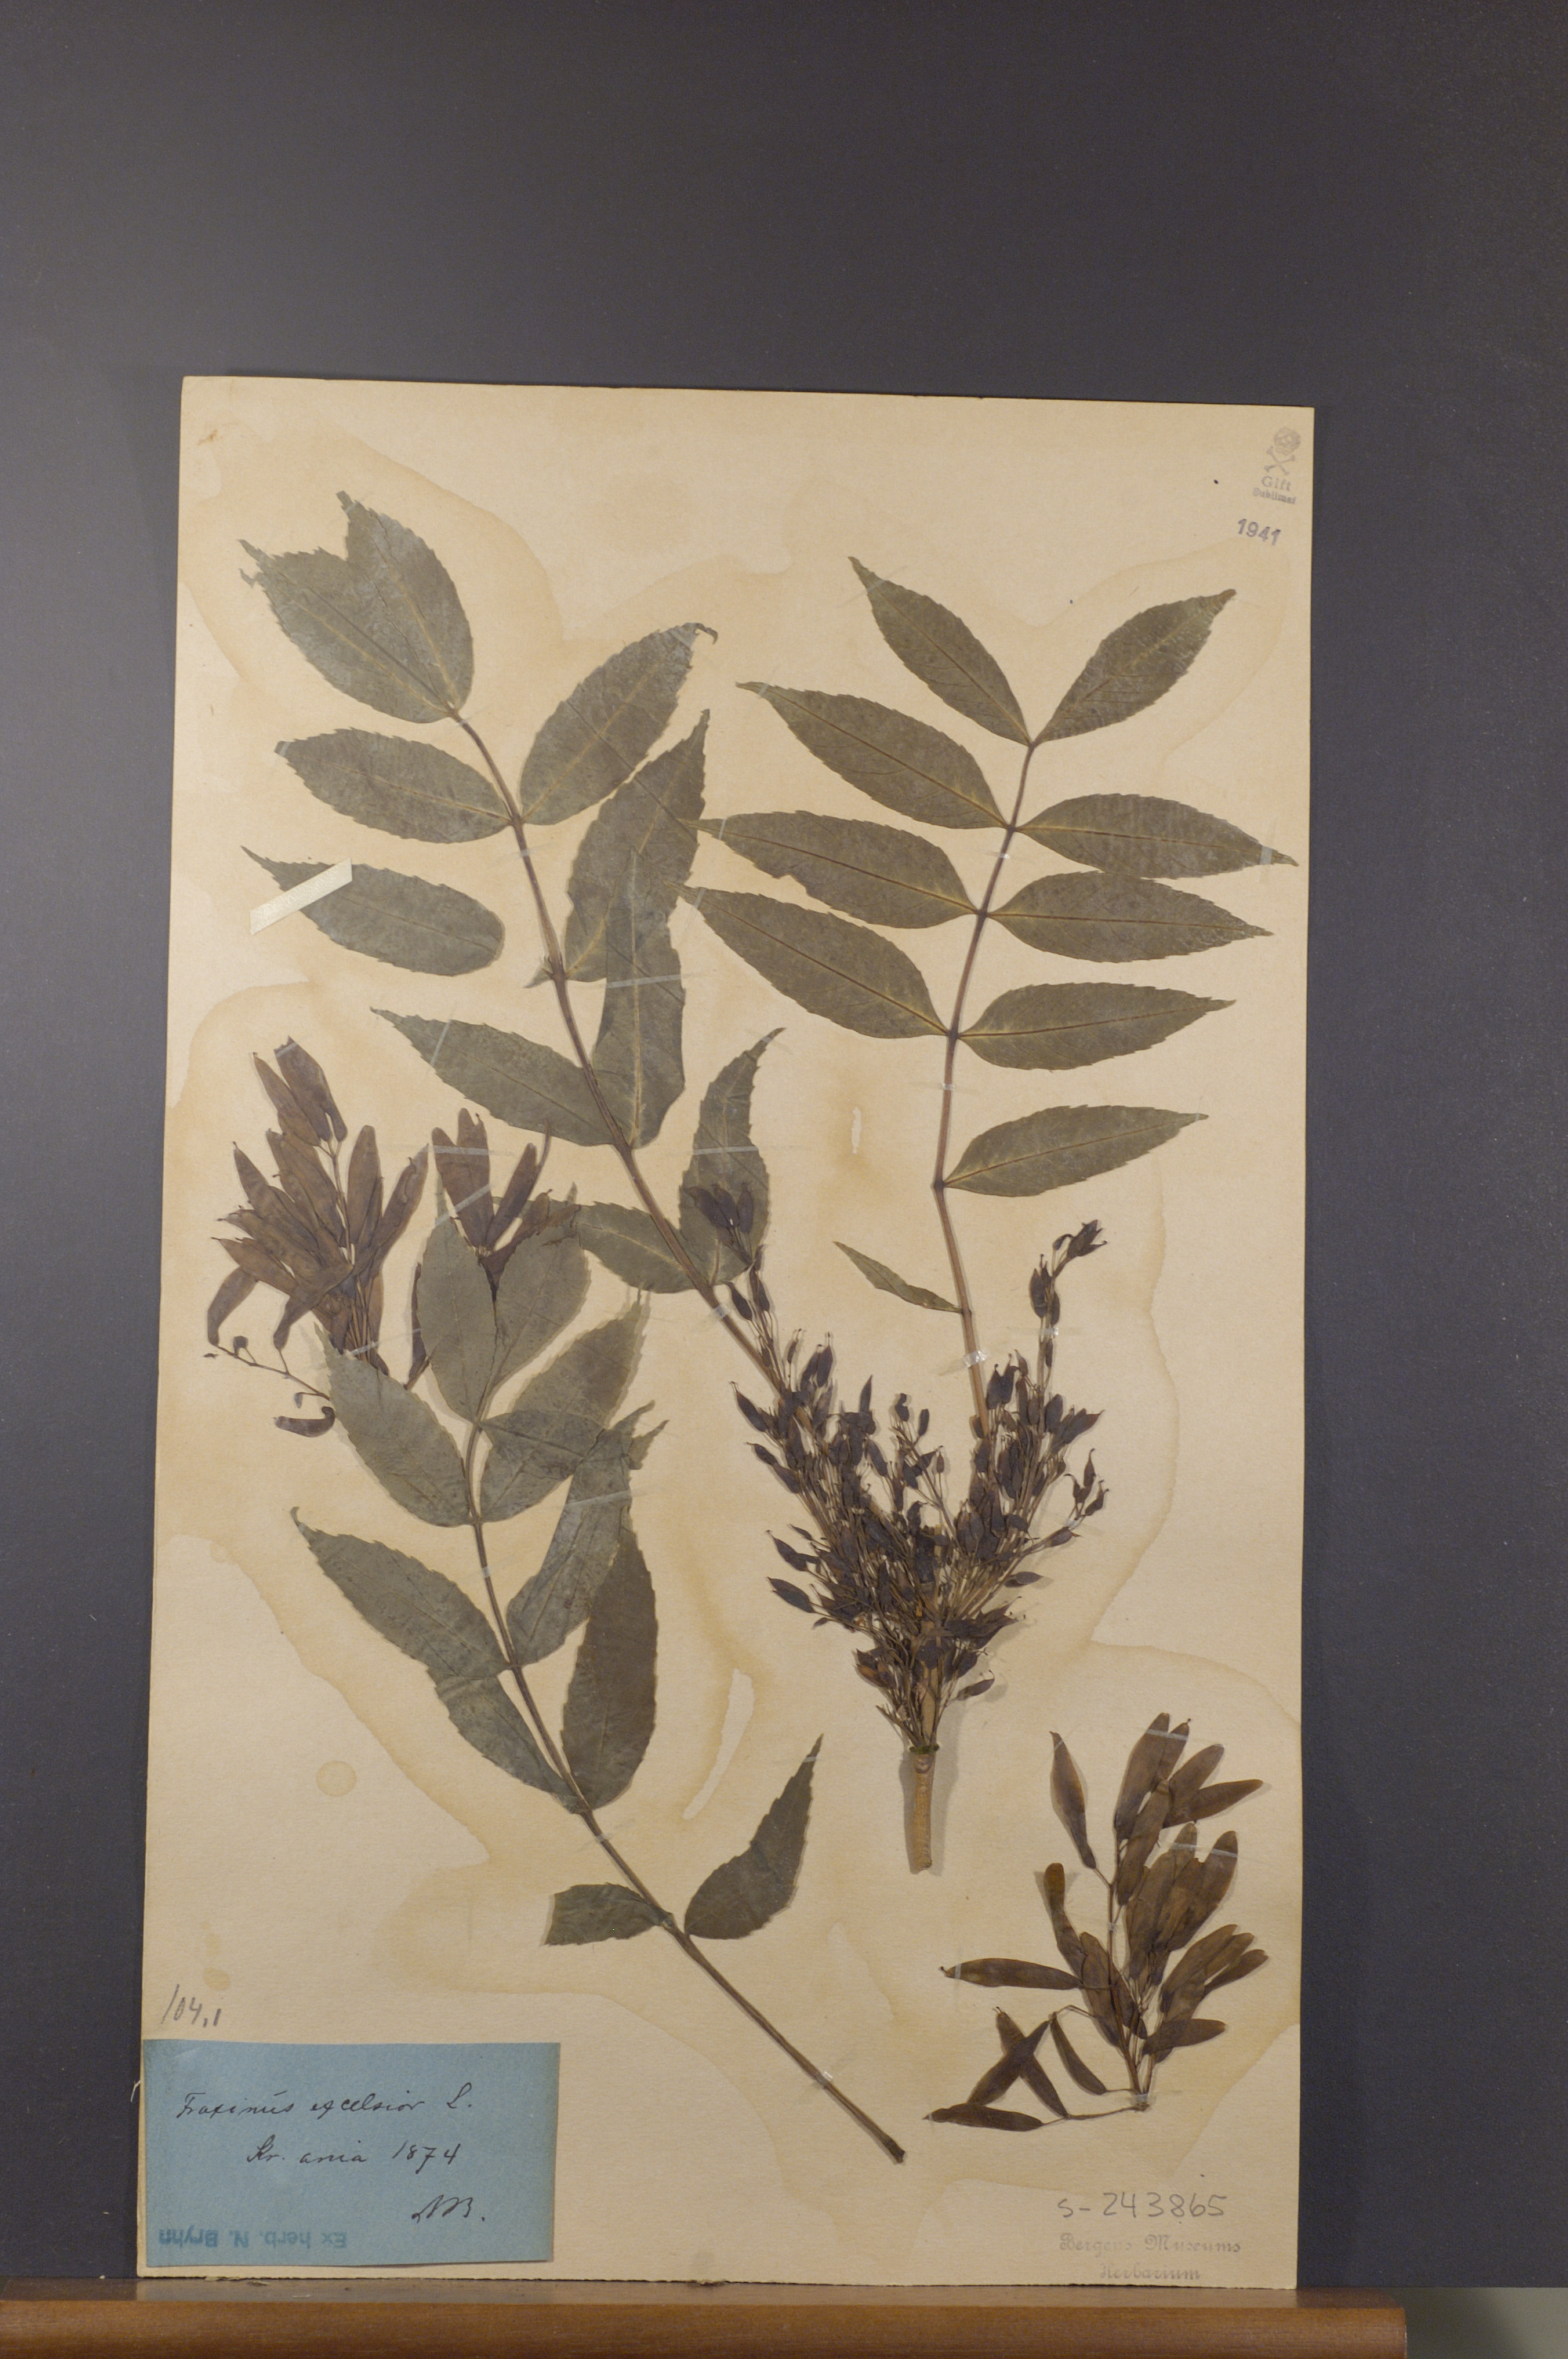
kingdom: Plantae
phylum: Tracheophyta
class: Magnoliopsida
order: Lamiales
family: Oleaceae
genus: Fraxinus
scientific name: Fraxinus excelsior
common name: European ash
